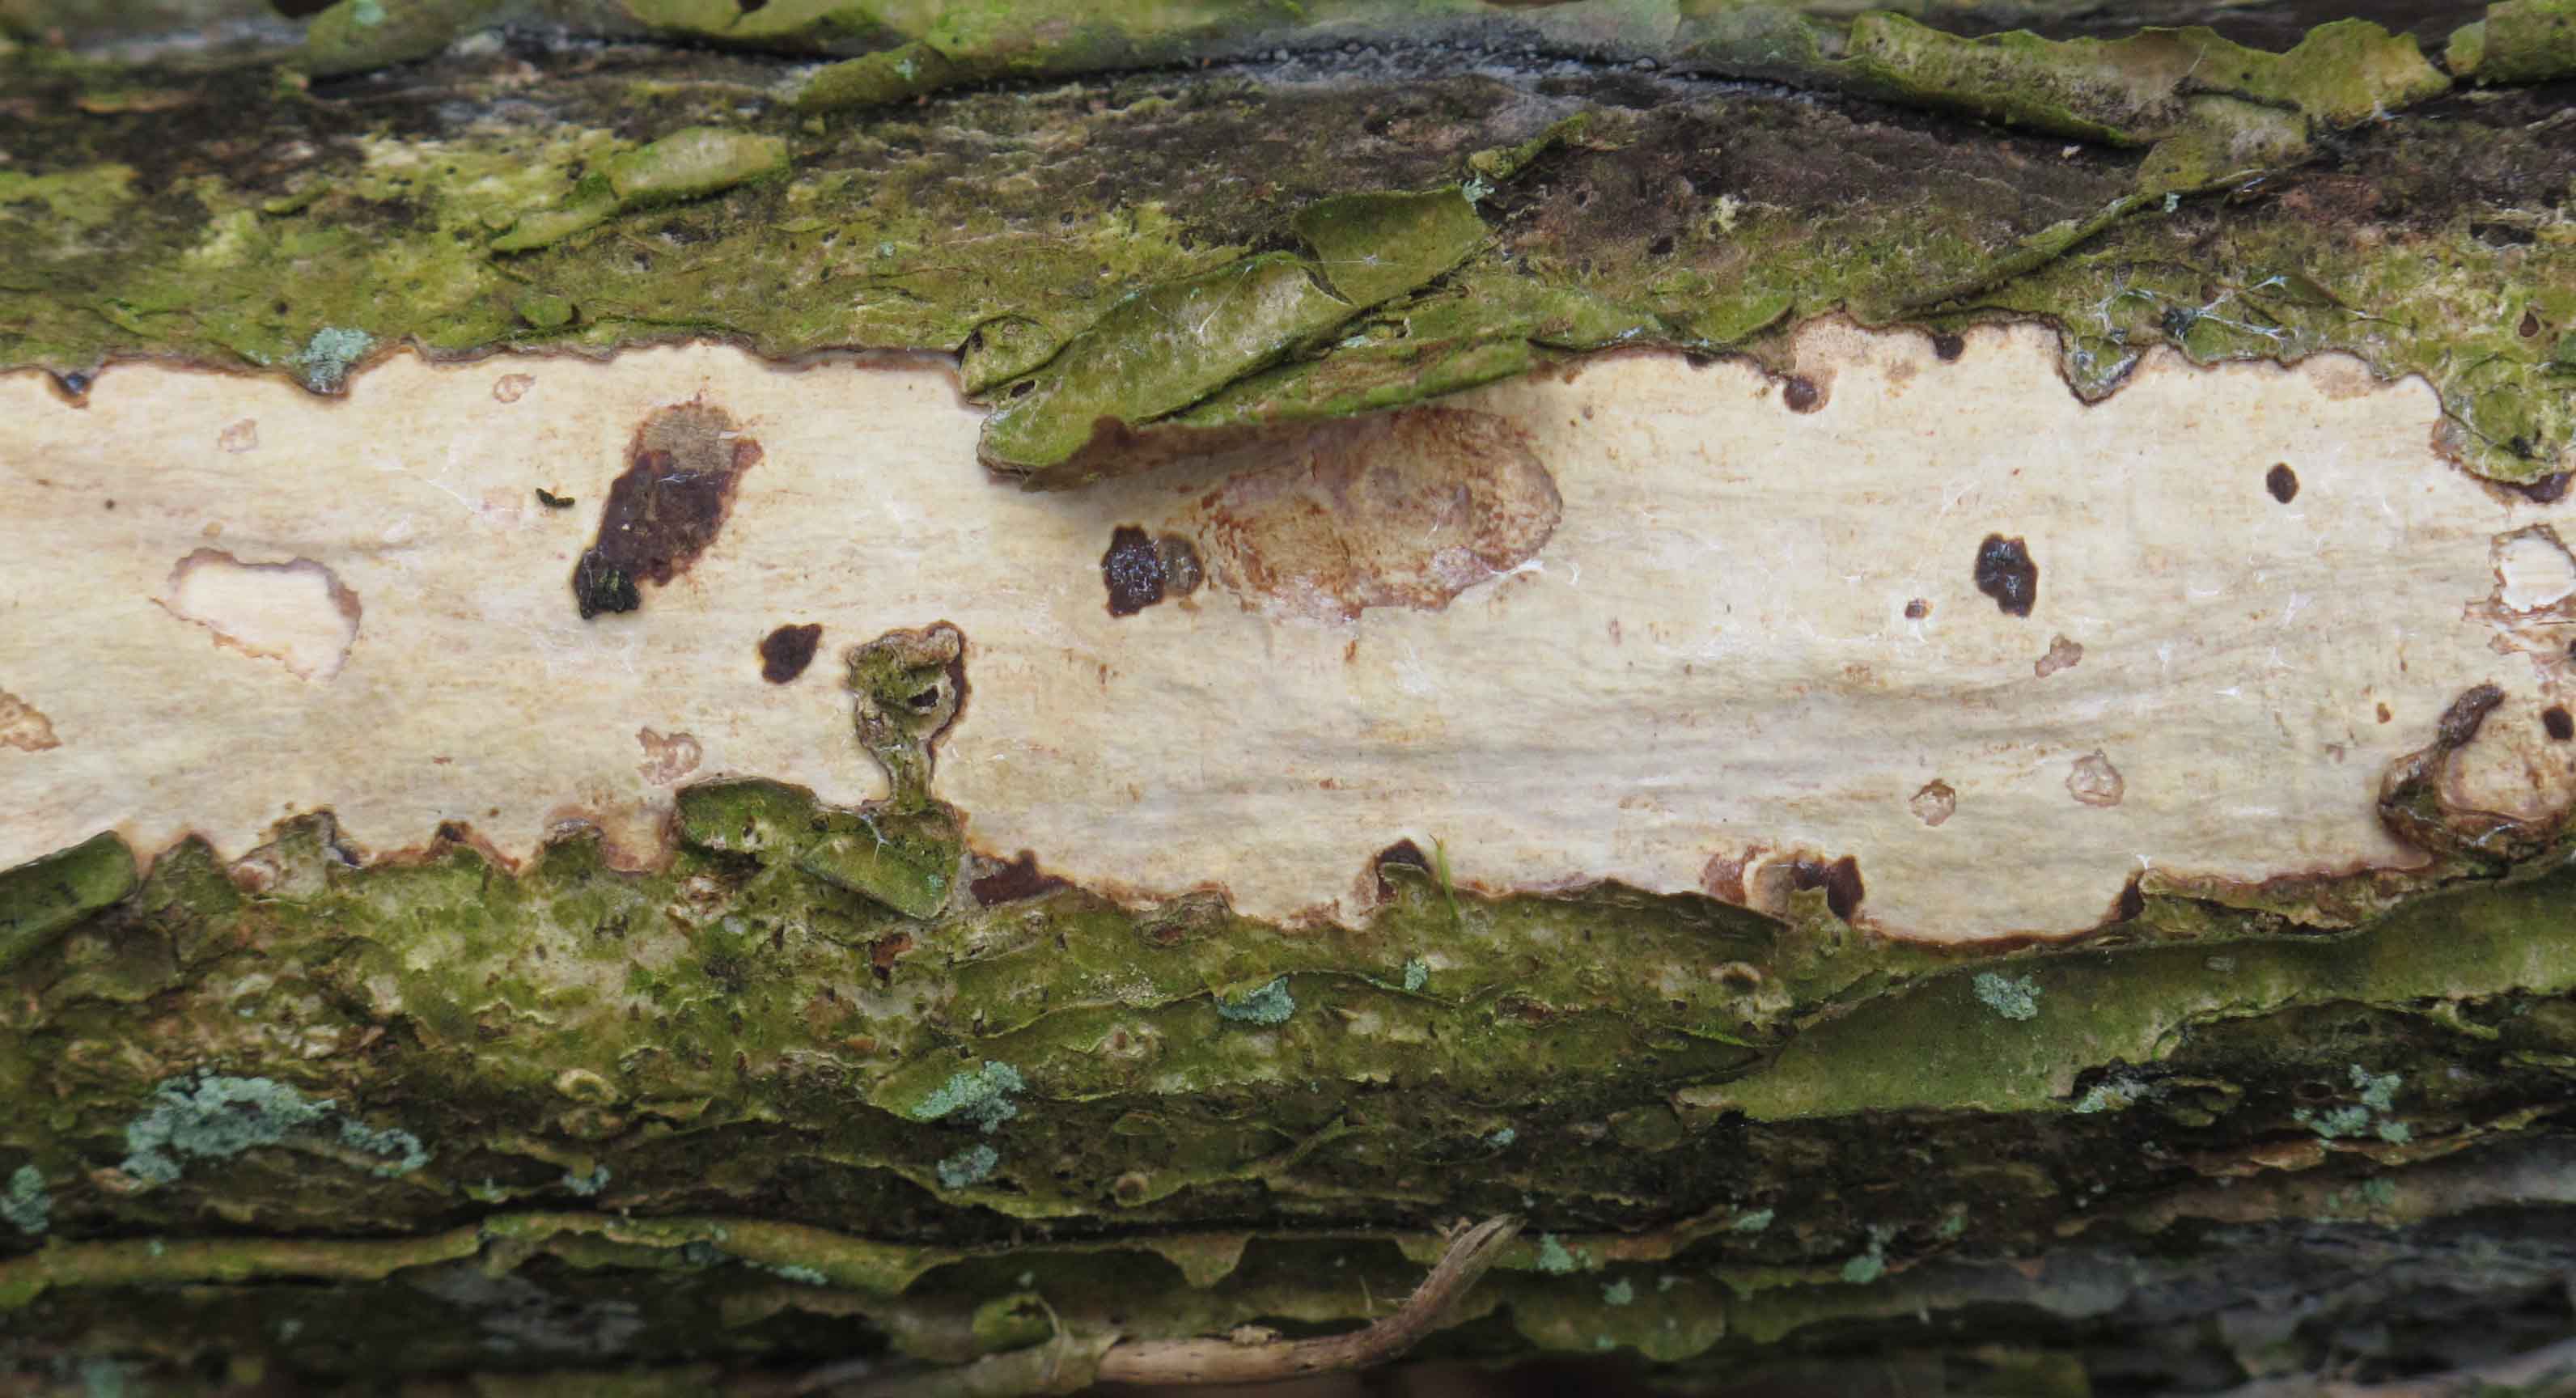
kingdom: Fungi
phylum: Basidiomycota
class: Agaricomycetes
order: Corticiales
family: Vuilleminiaceae
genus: Vuilleminia
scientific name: Vuilleminia coryli
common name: hassel-barksprænger
